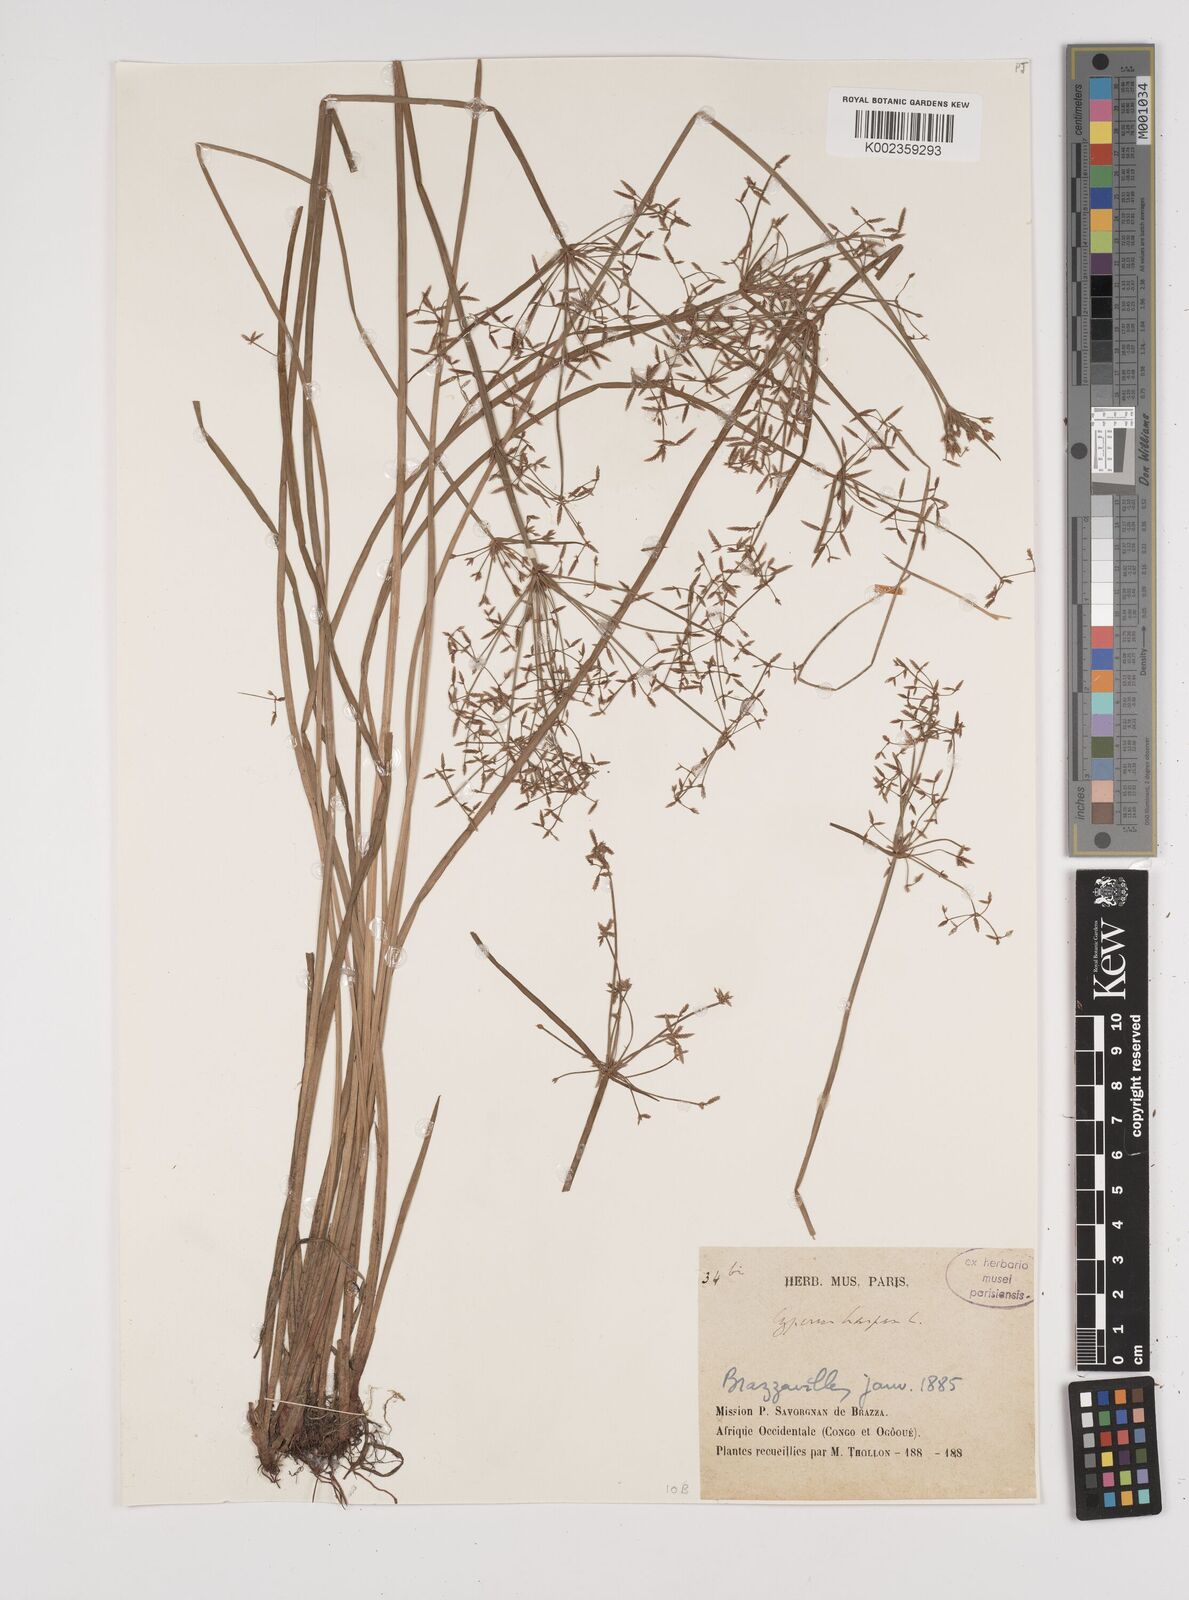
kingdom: Plantae
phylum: Tracheophyta
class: Liliopsida
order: Poales
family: Cyperaceae
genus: Cyperus
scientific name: Cyperus haspan
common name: Haspan flatsedge
